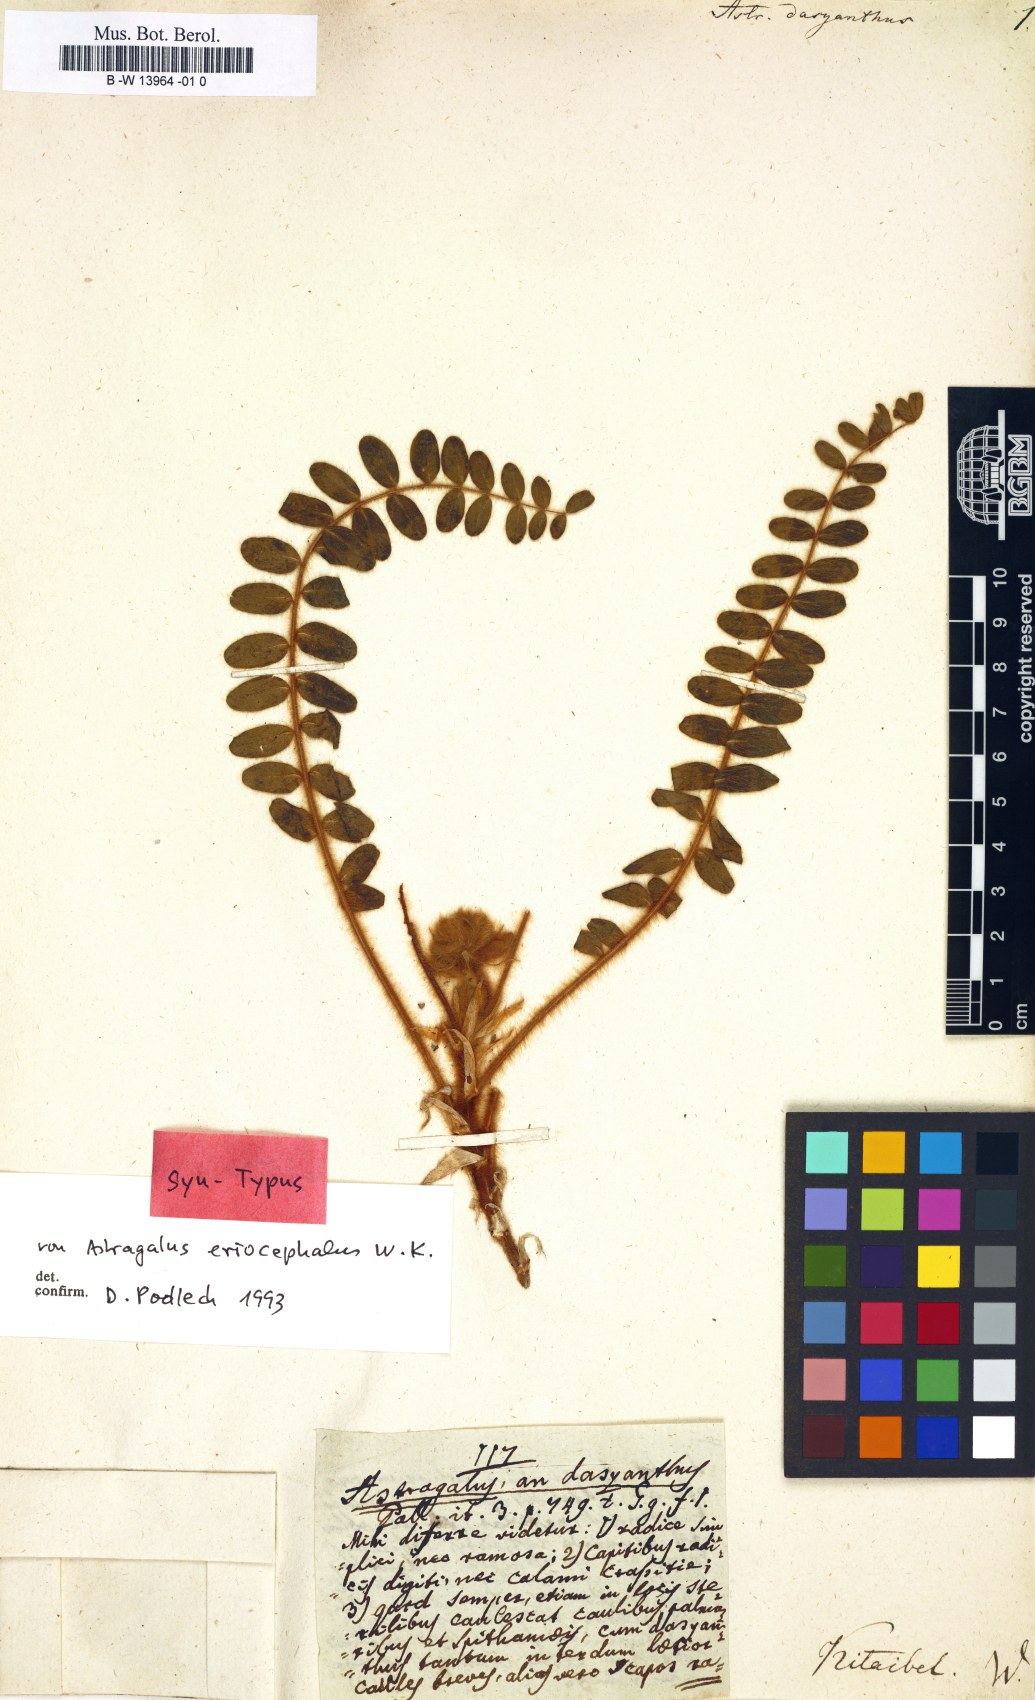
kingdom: Plantae
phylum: Tracheophyta
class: Magnoliopsida
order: Fabales
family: Fabaceae
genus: Astragalus
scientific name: Astragalus dasyanthus
